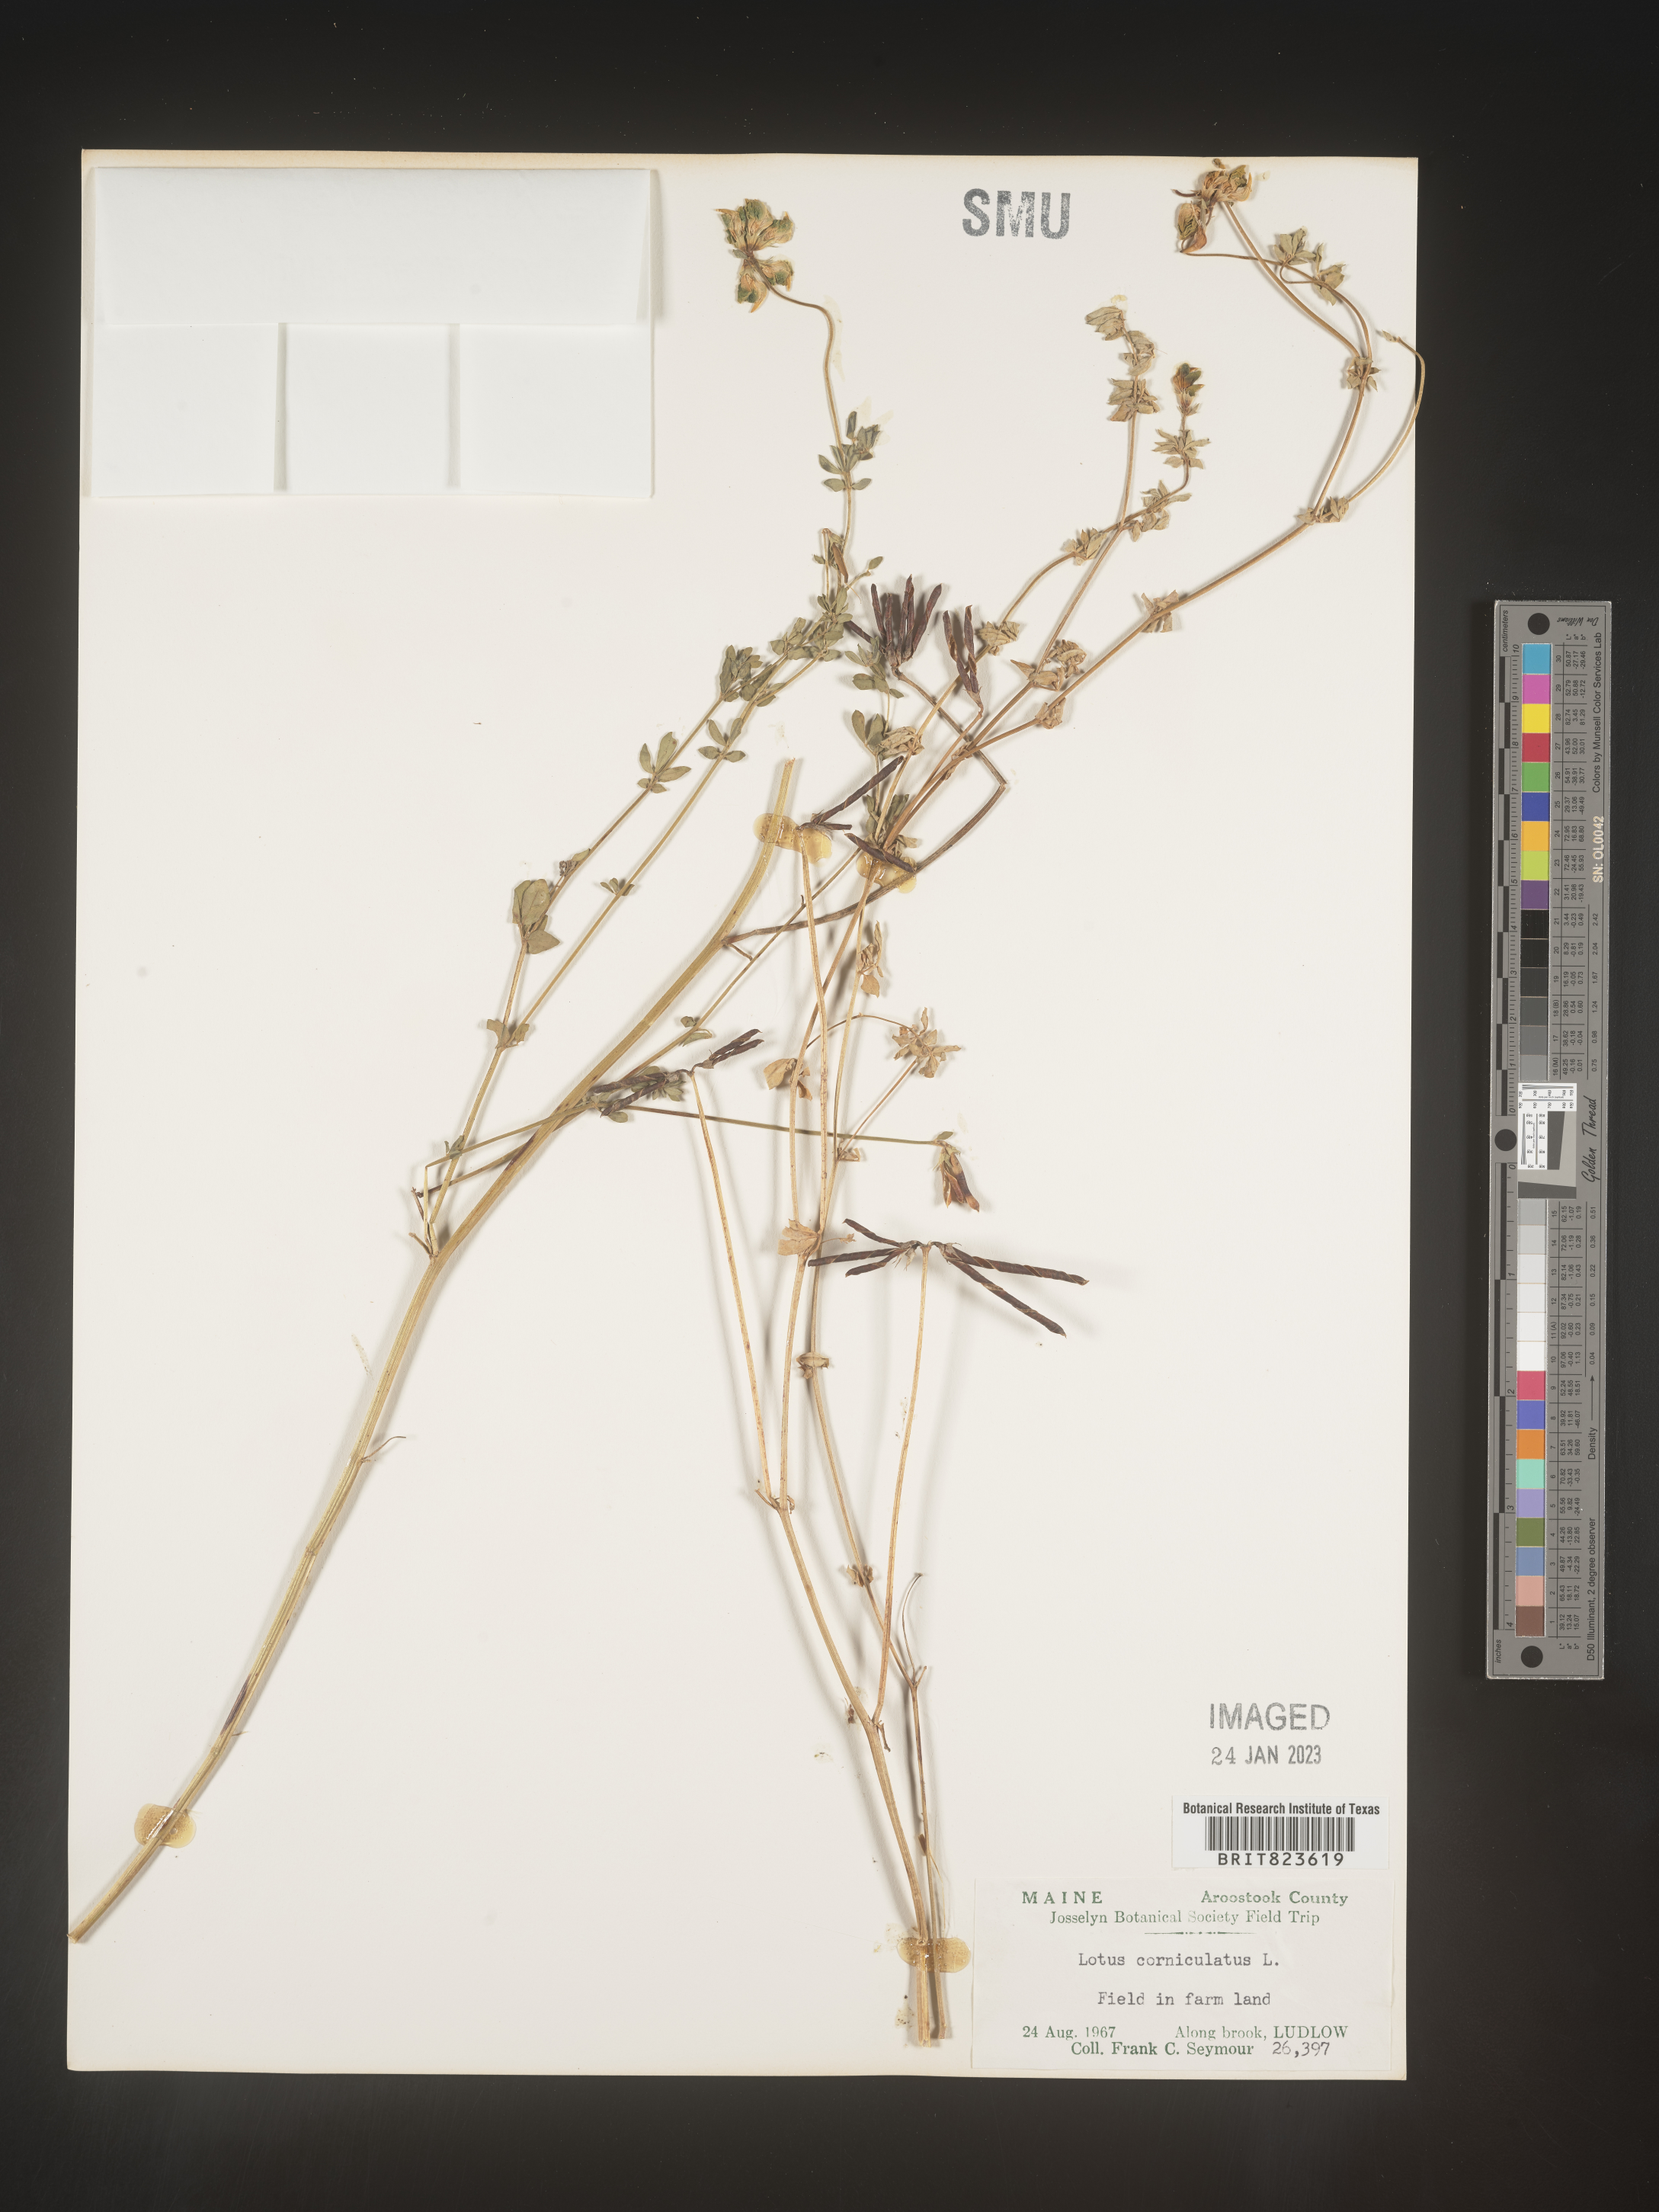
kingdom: Plantae
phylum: Tracheophyta
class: Magnoliopsida
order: Fabales
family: Fabaceae
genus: Lotus
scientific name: Lotus corniculatus
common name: Common bird's-foot-trefoil
